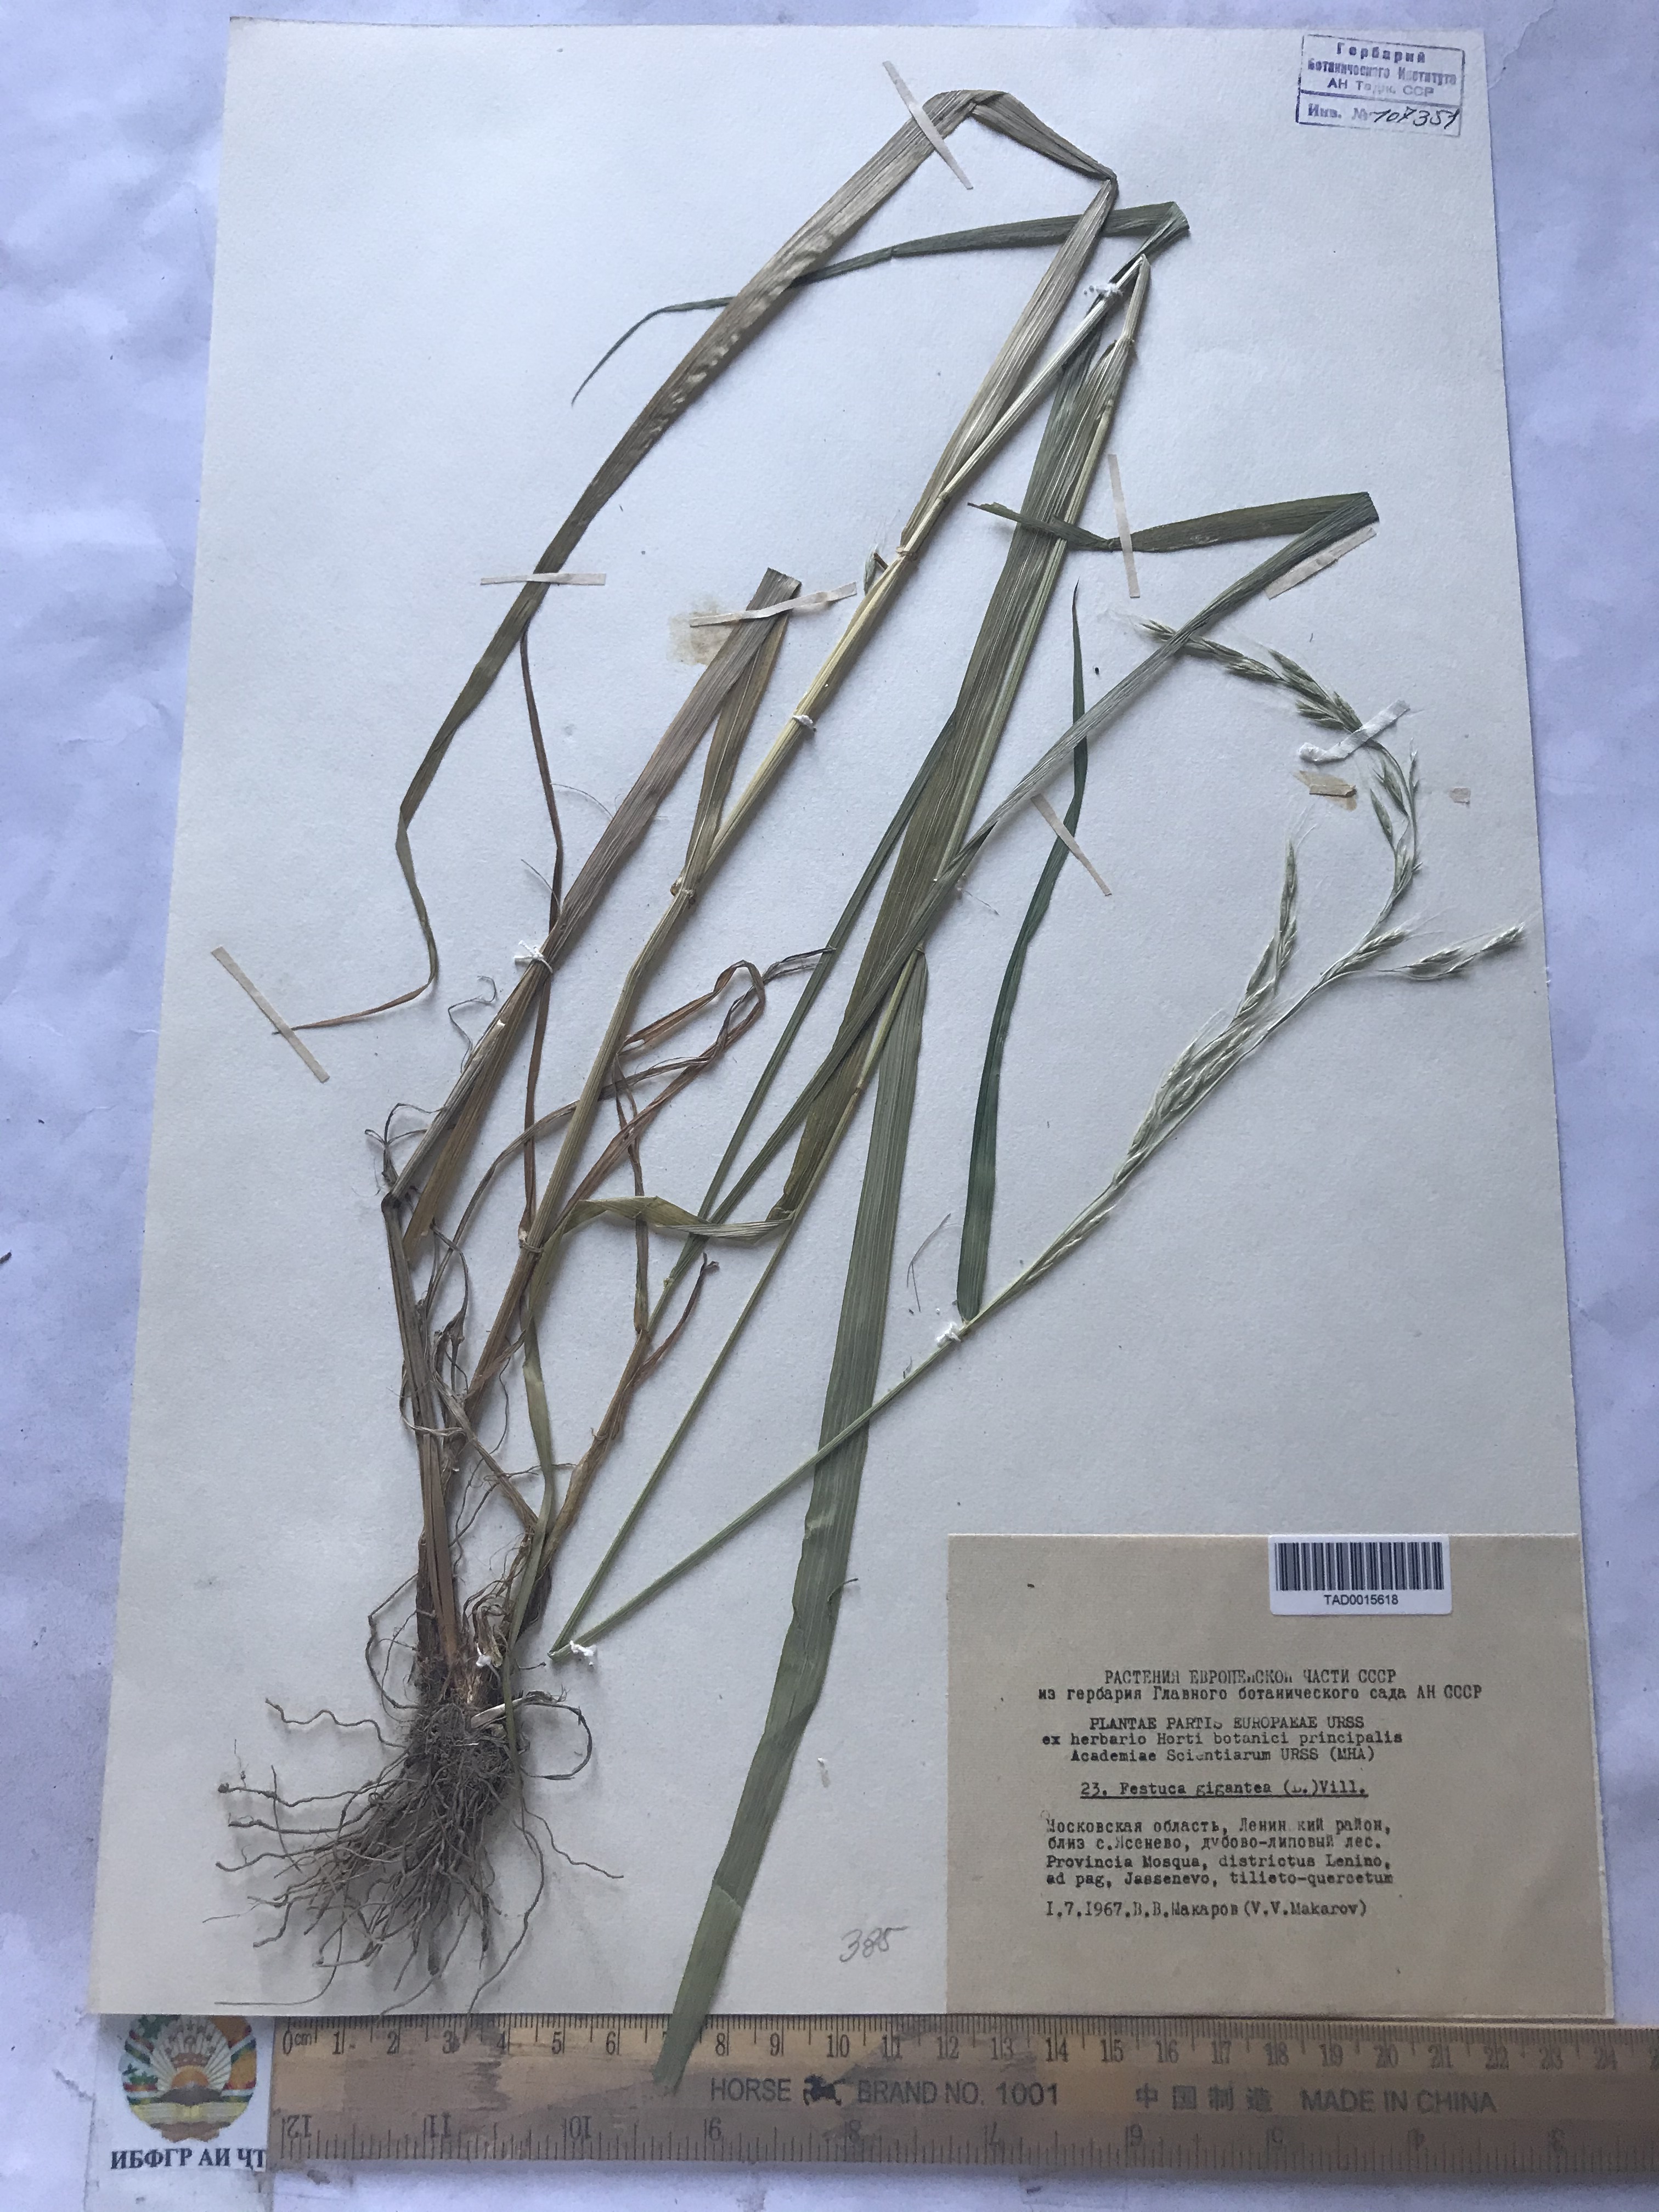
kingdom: Plantae
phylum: Tracheophyta
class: Liliopsida
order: Poales
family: Poaceae
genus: Lolium
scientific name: Lolium giganteum
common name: Giant fescue
